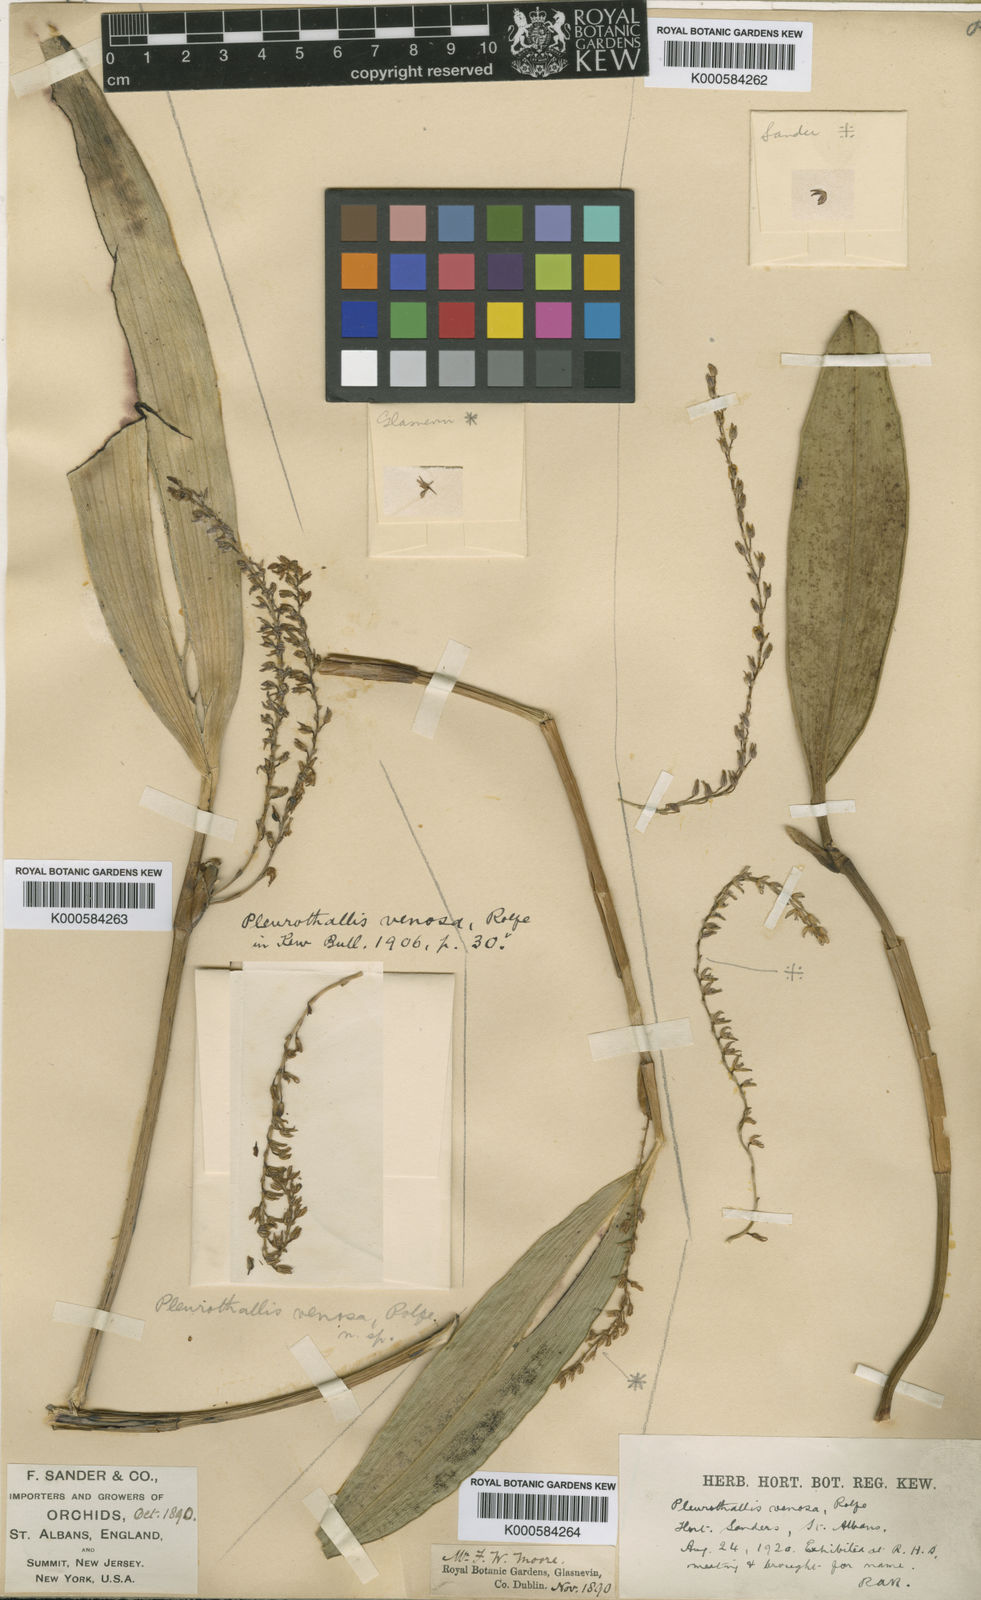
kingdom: Plantae
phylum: Tracheophyta
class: Liliopsida
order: Asparagales
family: Orchidaceae
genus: Stelis
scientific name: Stelis galeata
